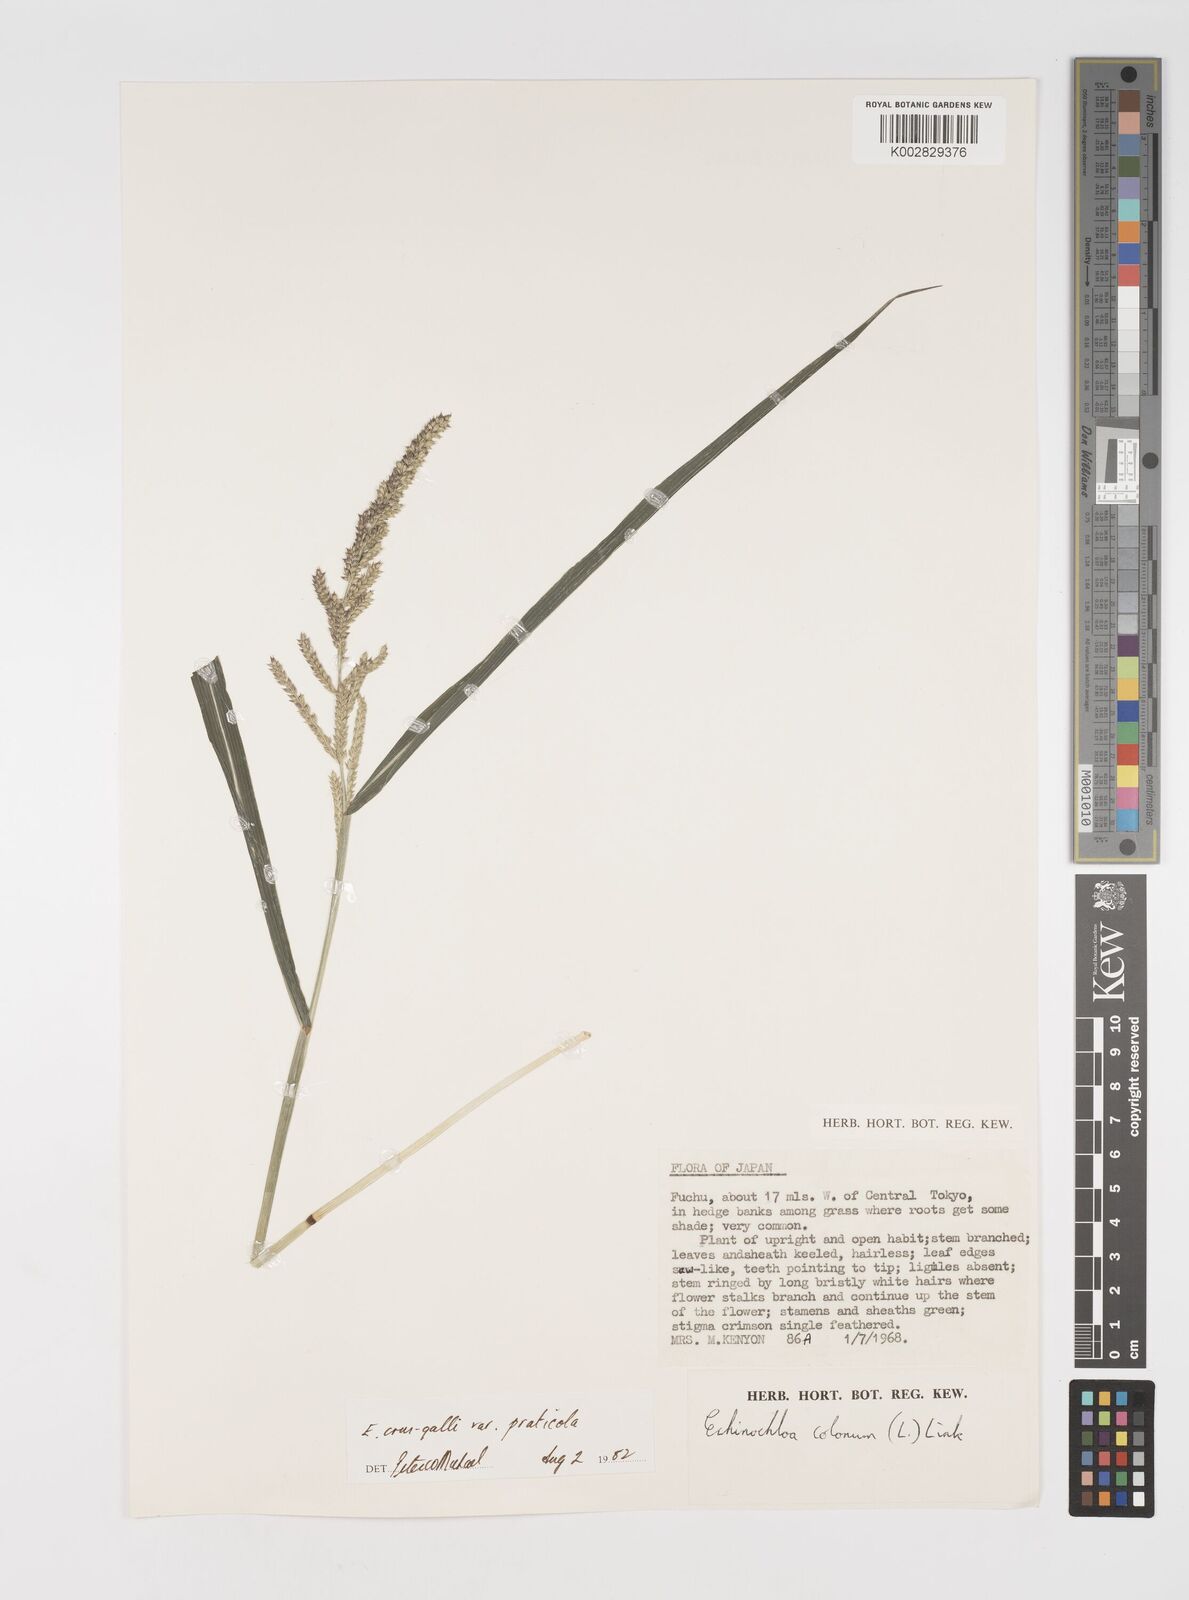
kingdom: Plantae
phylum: Tracheophyta
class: Liliopsida
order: Poales
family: Poaceae
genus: Echinochloa
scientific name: Echinochloa crus-galli
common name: Cockspur
